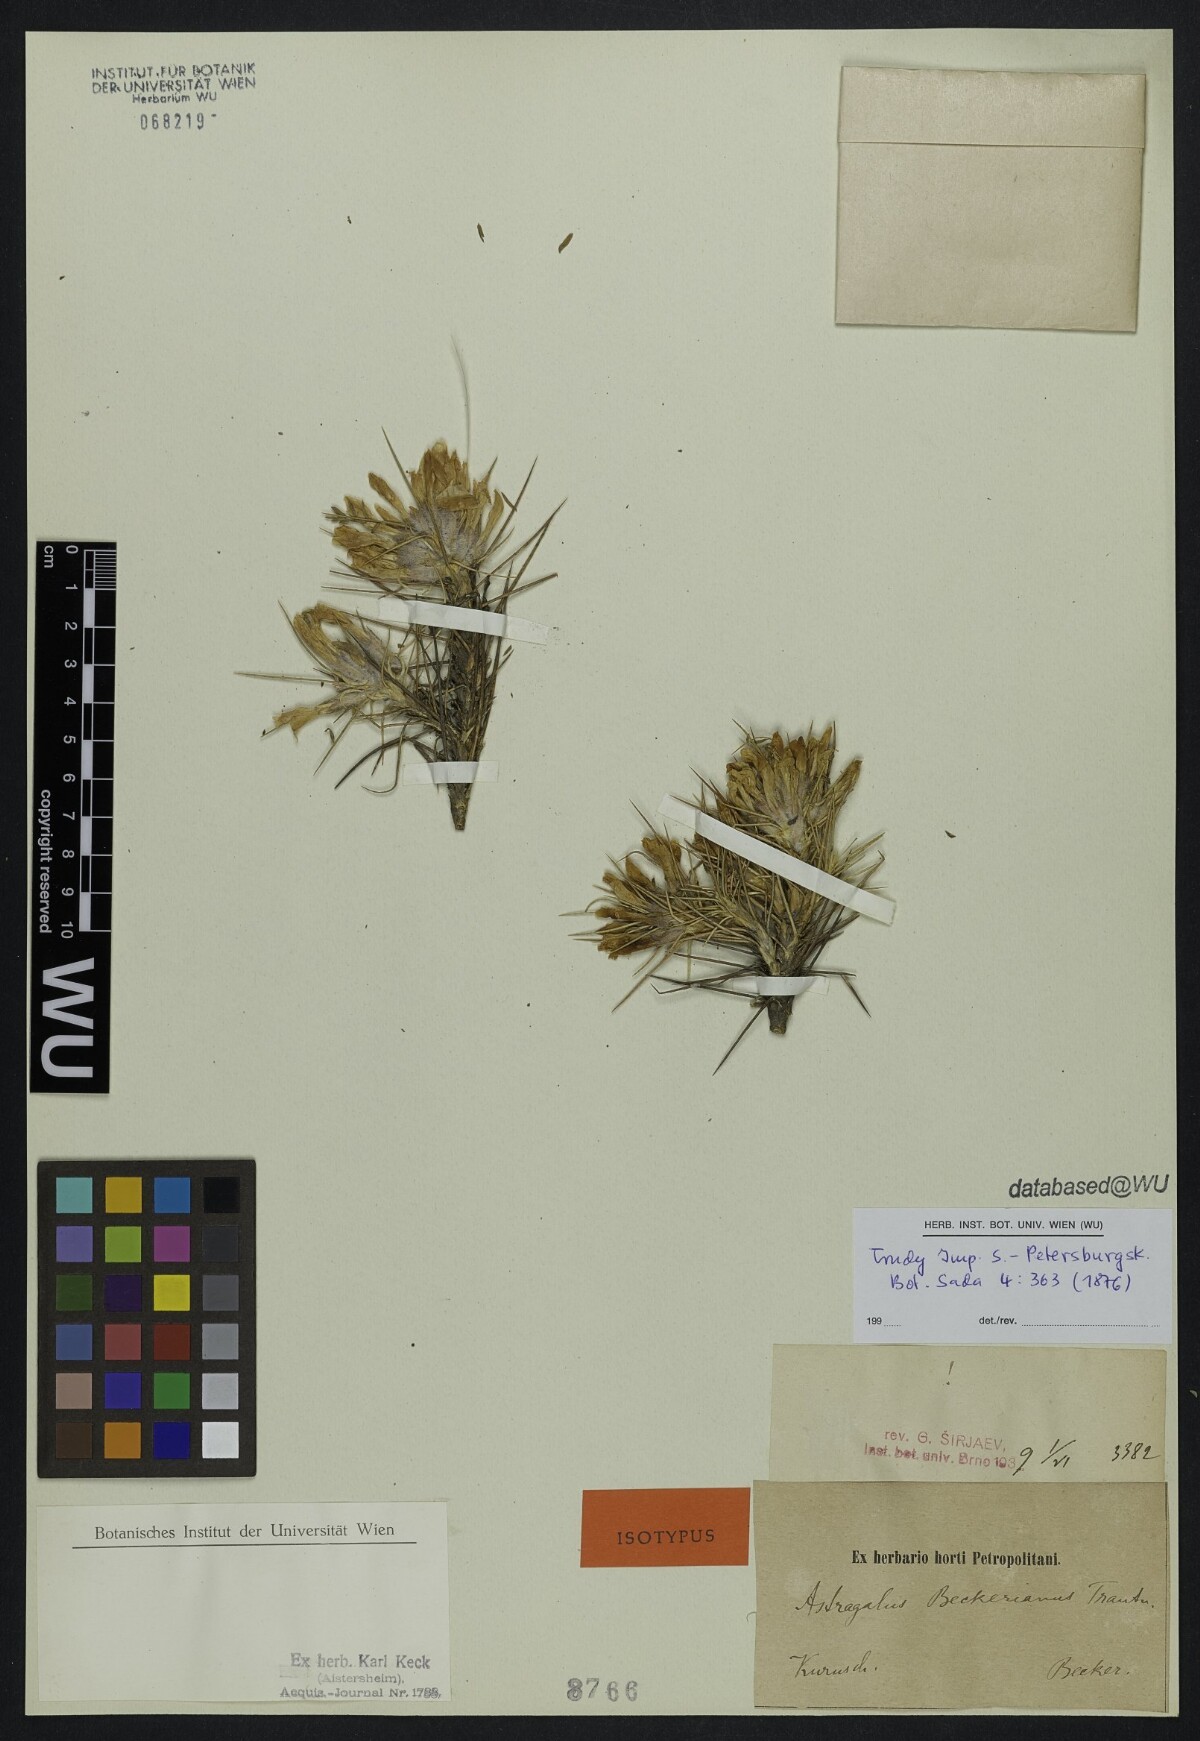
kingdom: Plantae
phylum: Tracheophyta
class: Magnoliopsida
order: Fabales
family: Fabaceae
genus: Astragalus
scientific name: Astragalus beckerianus
